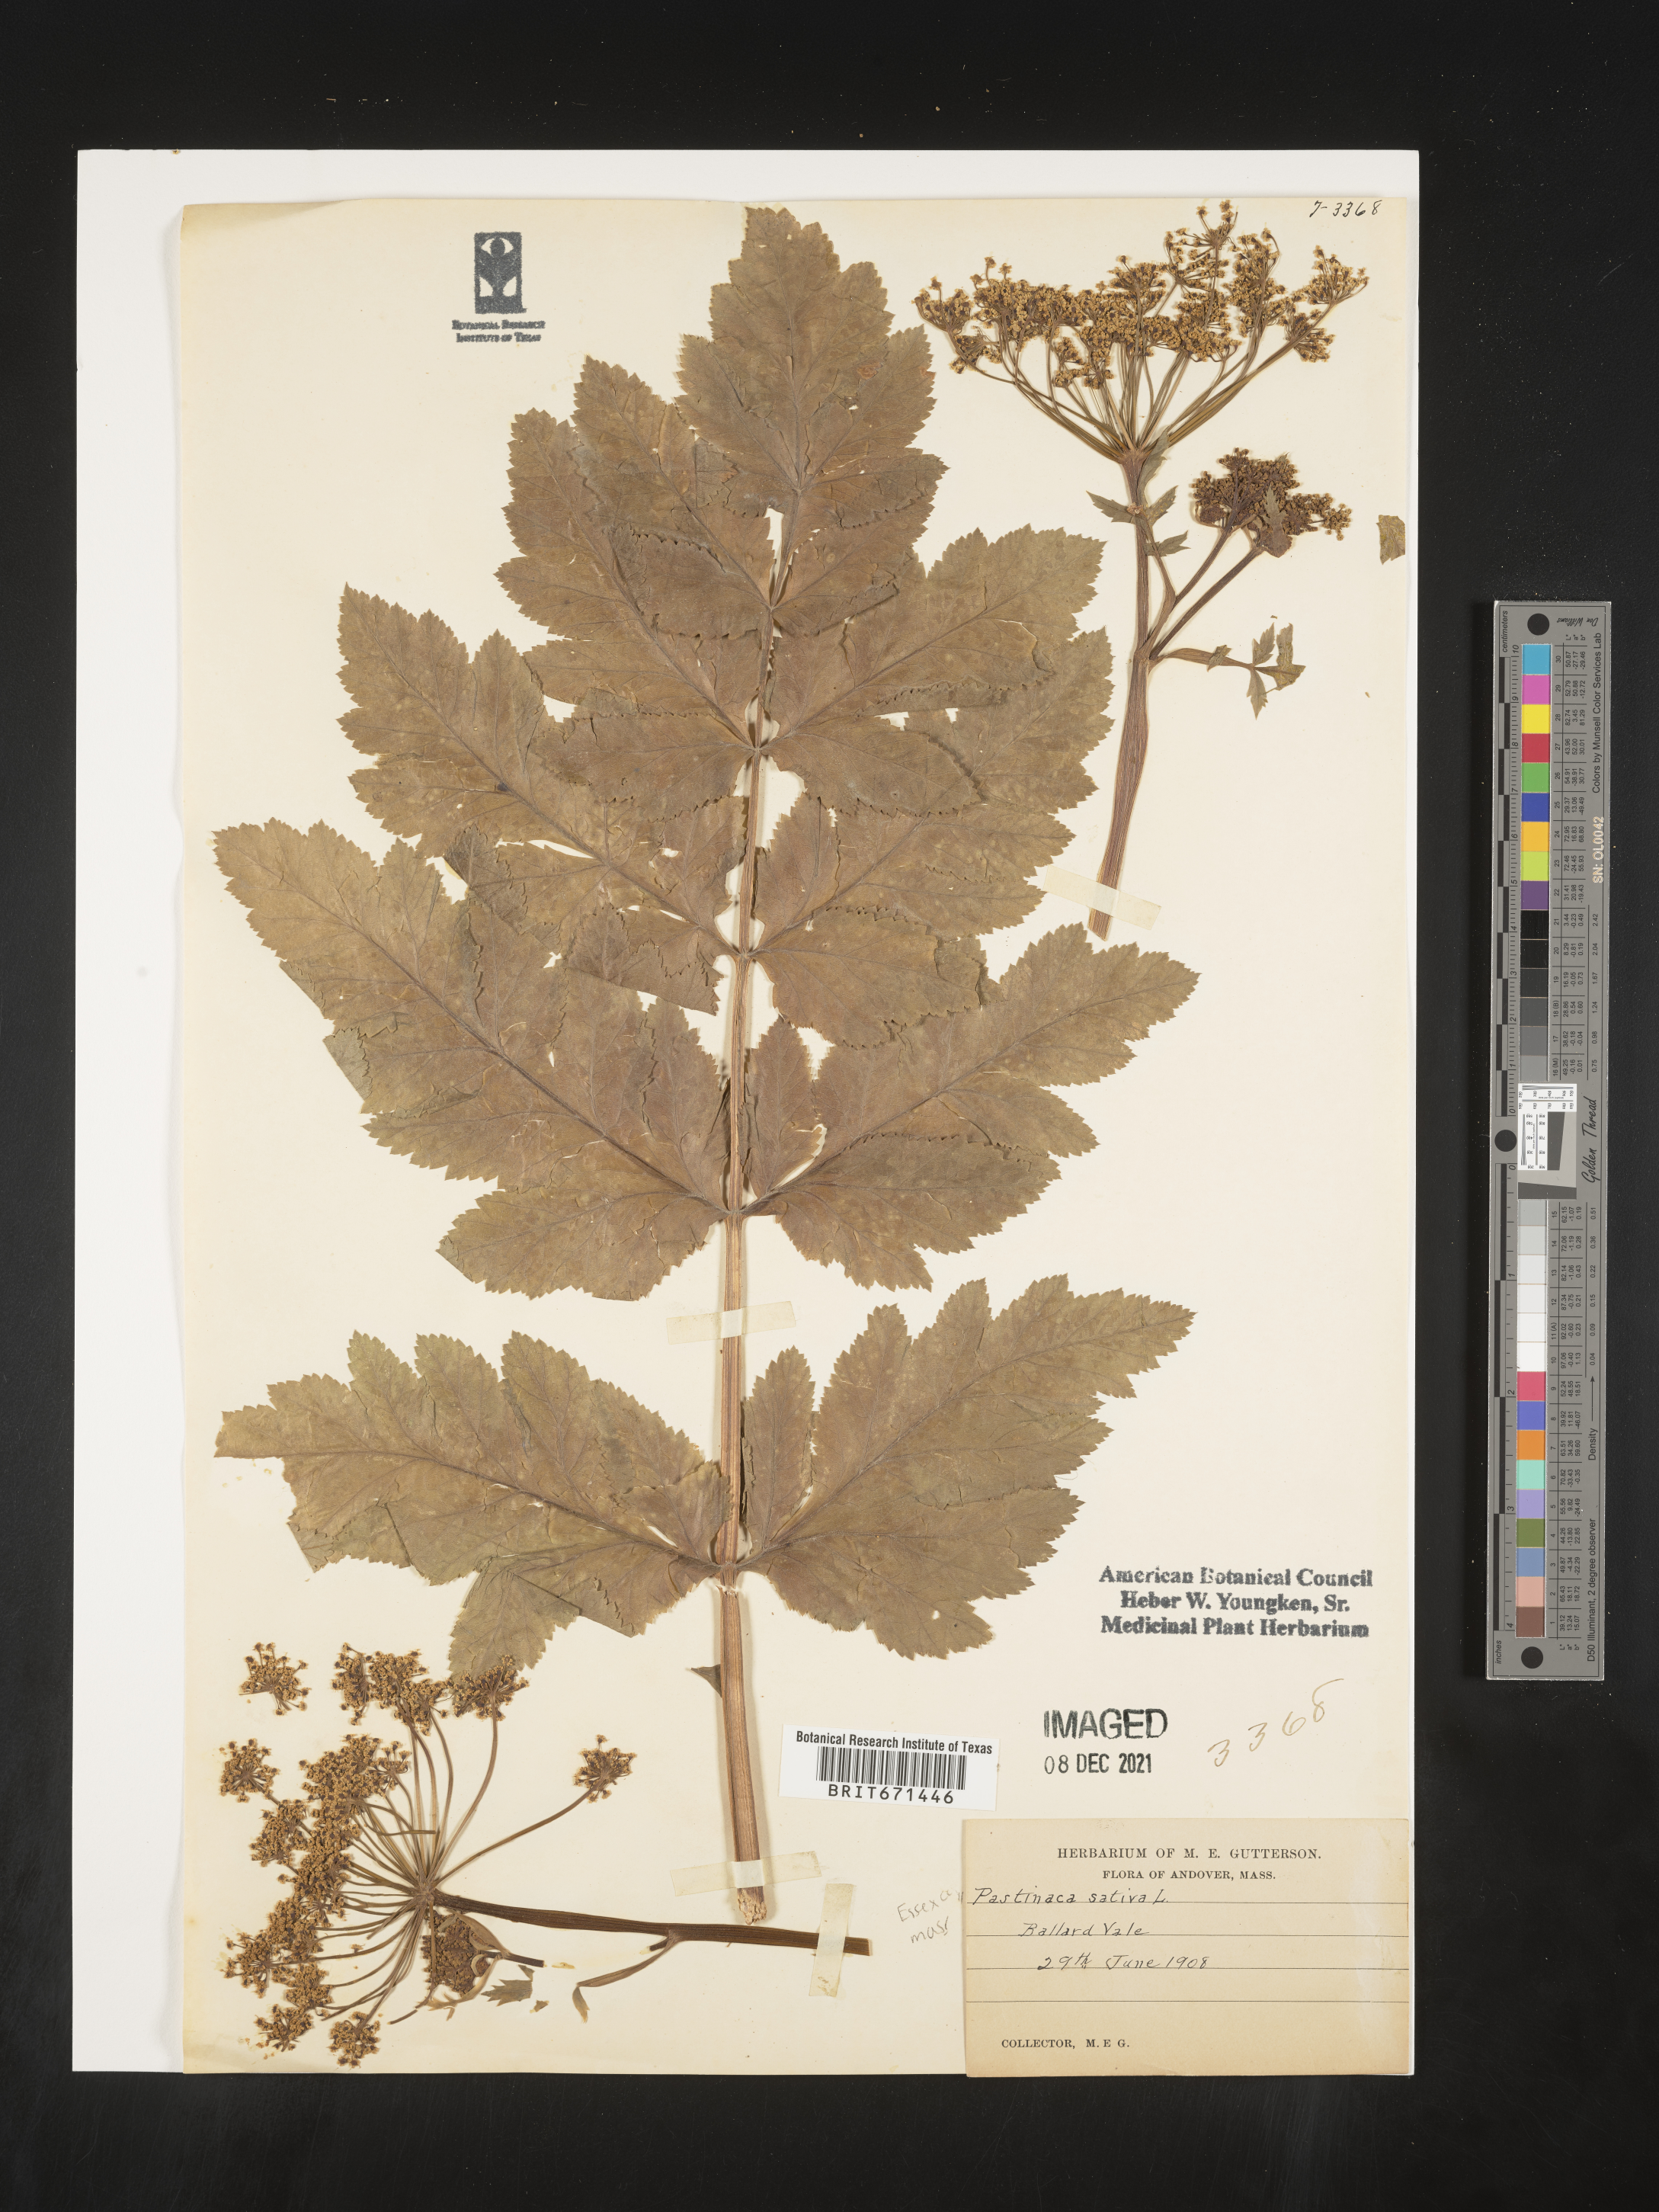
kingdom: Plantae
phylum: Tracheophyta
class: Magnoliopsida
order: Apiales
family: Apiaceae
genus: Pastinaca
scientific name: Pastinaca
